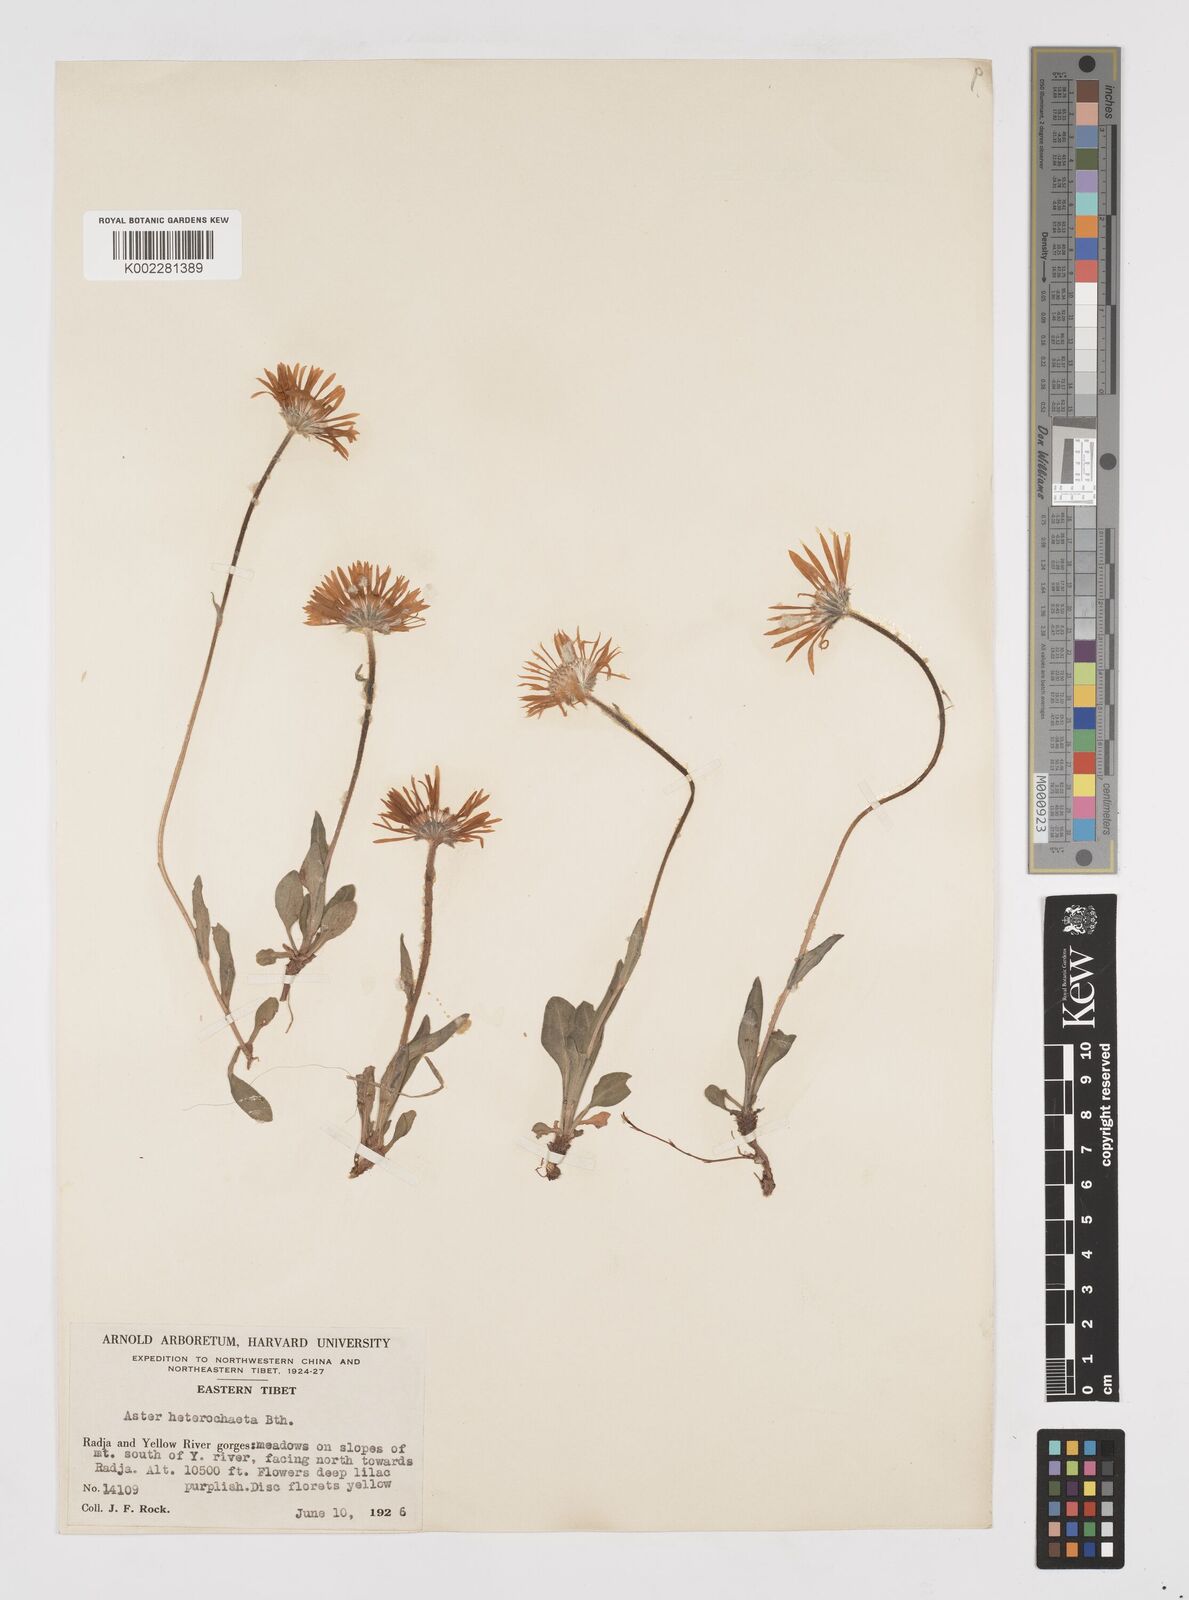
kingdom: Plantae
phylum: Tracheophyta
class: Magnoliopsida
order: Asterales
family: Asteraceae
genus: Tibetiodes
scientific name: Tibetiodes flaccida
